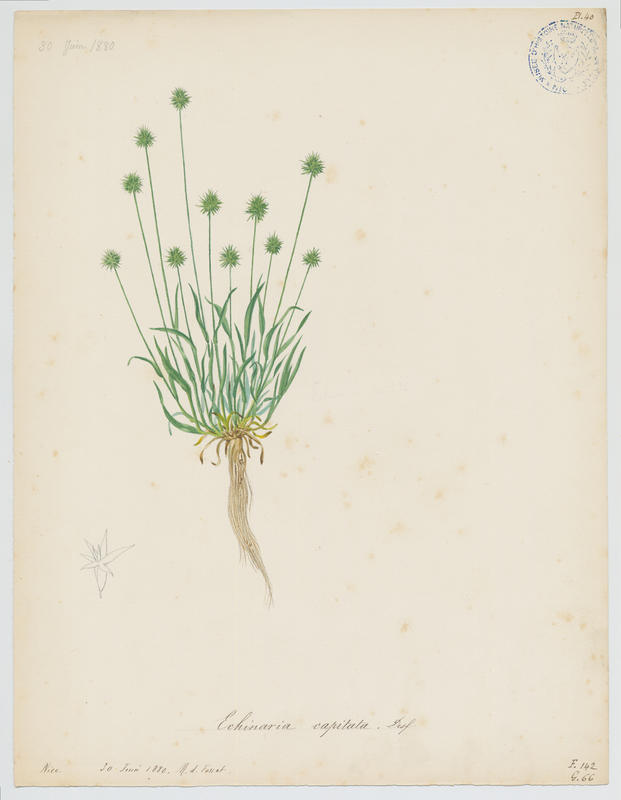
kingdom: Plantae
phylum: Tracheophyta
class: Liliopsida
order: Poales
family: Poaceae
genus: Echinaria
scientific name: Echinaria capitata
